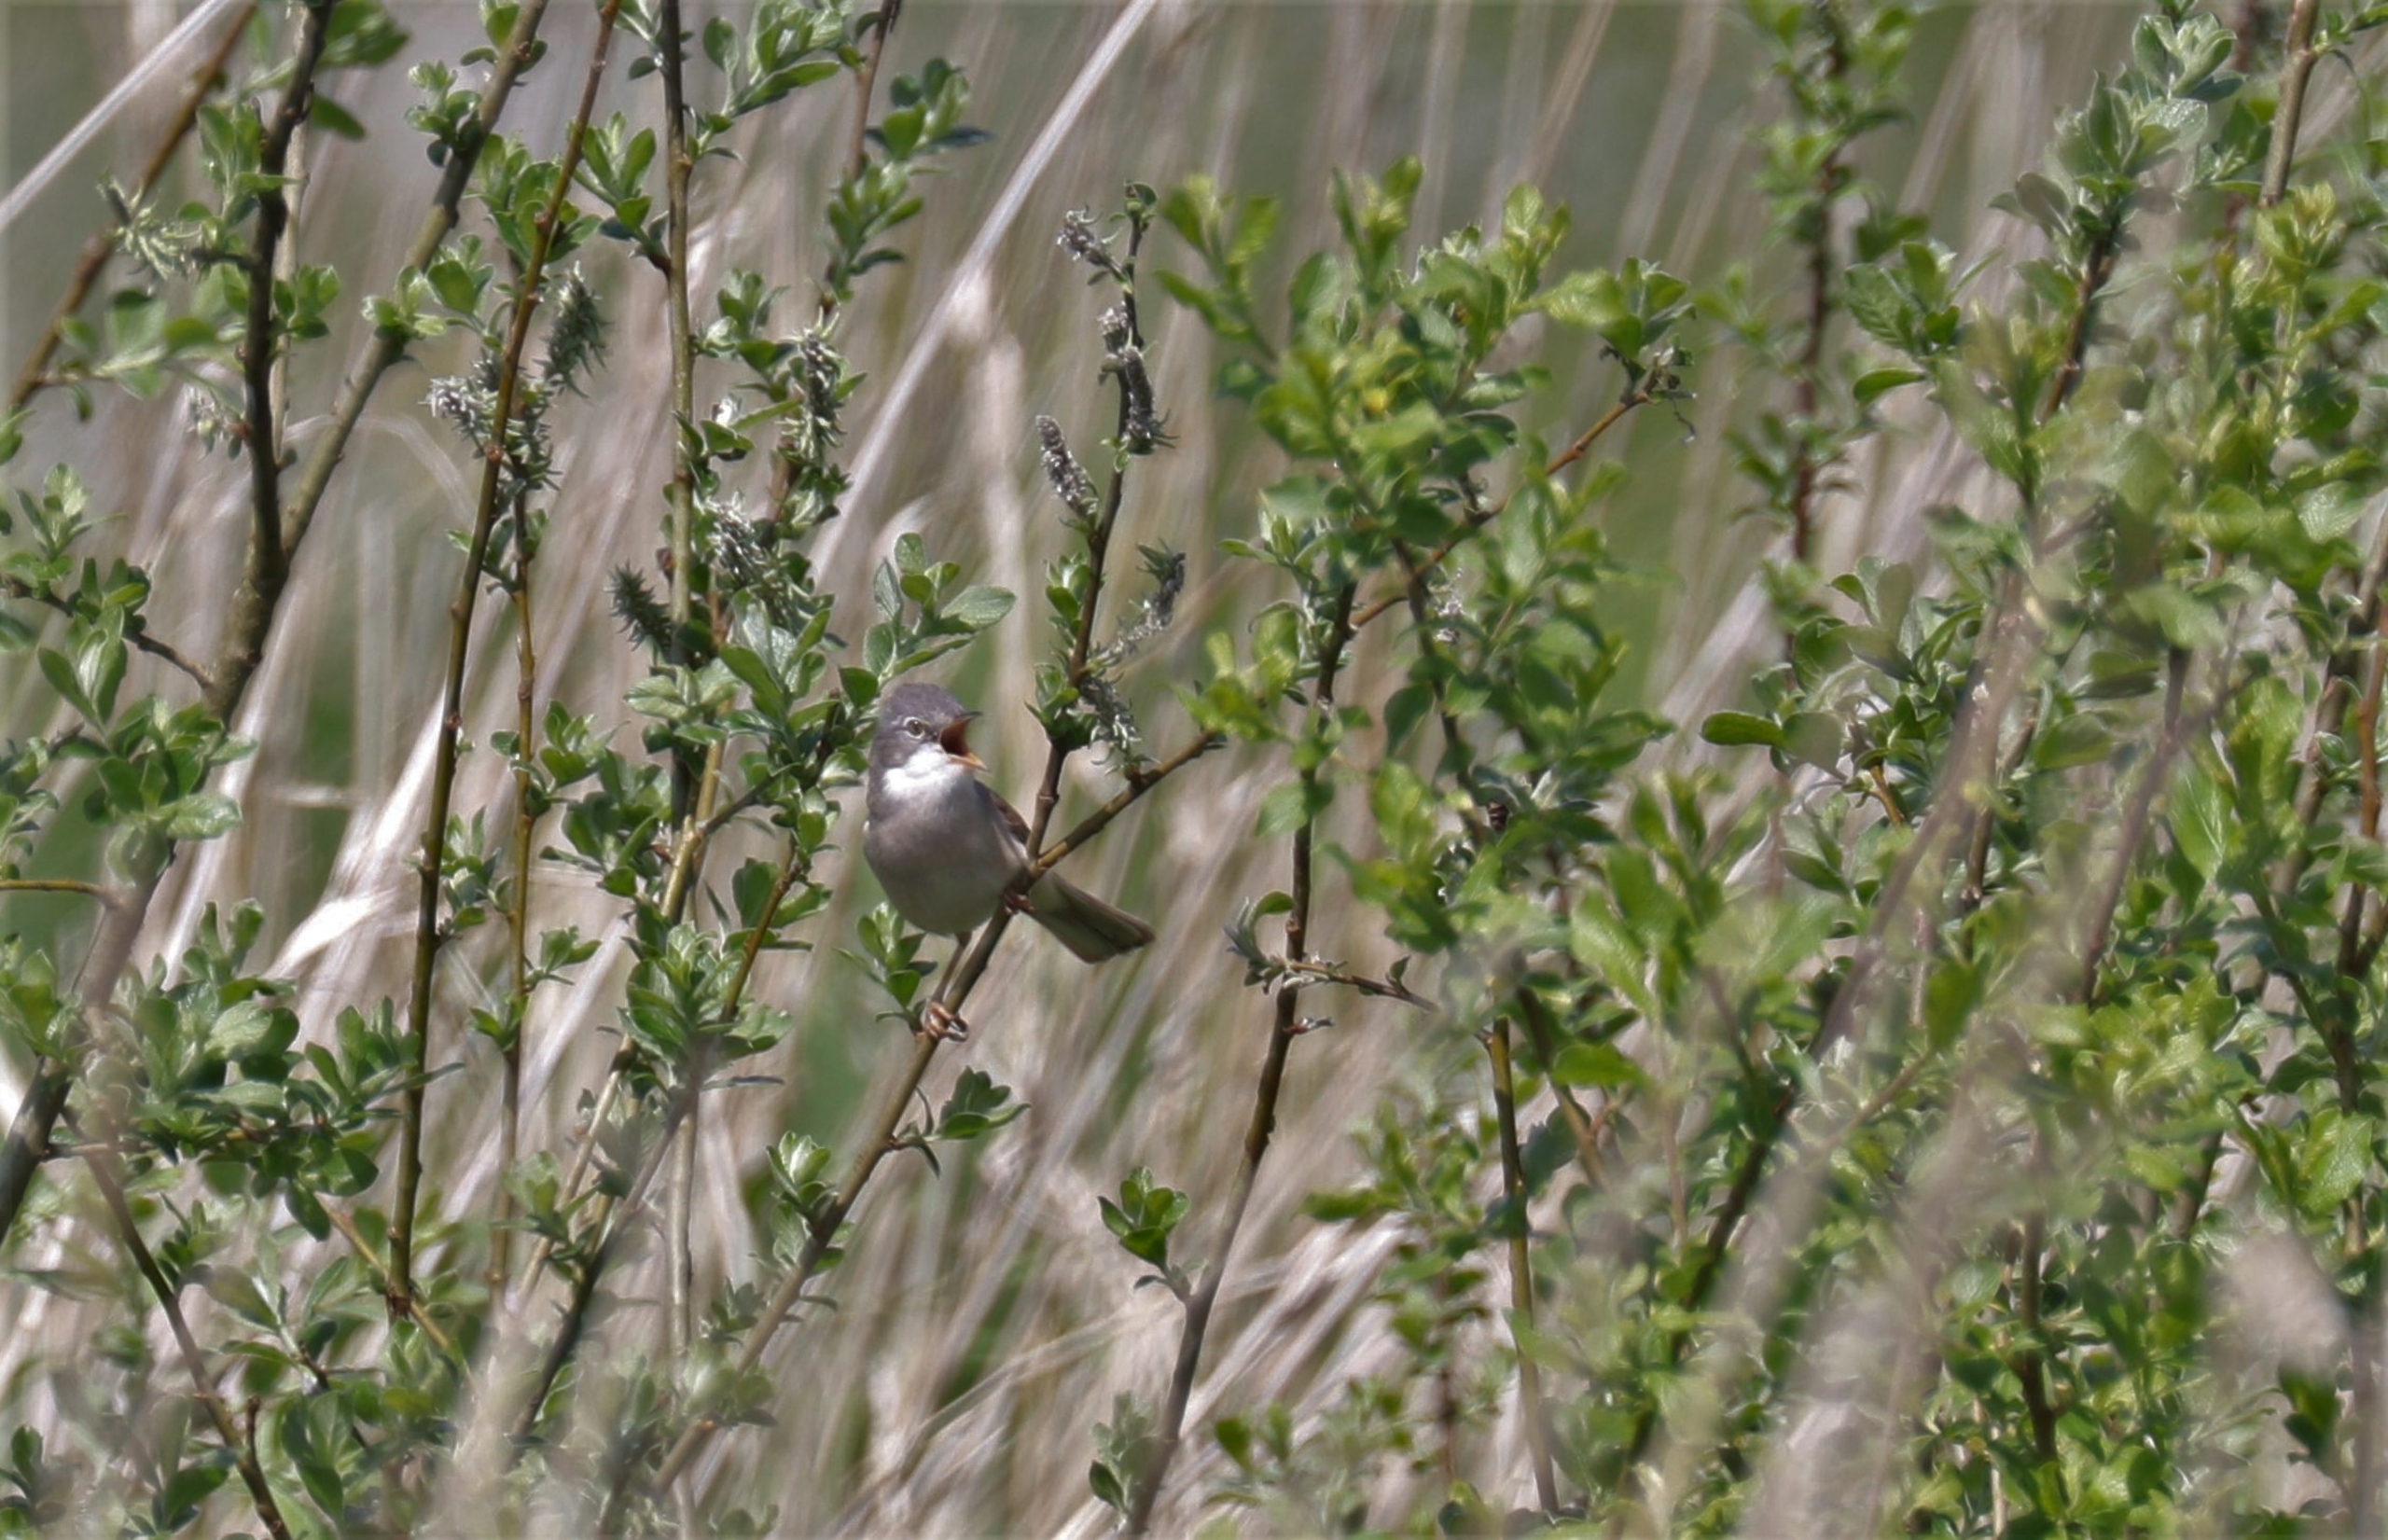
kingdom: Animalia
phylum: Chordata
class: Aves
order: Passeriformes
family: Sylviidae
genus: Sylvia
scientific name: Sylvia communis
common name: Tornsanger
